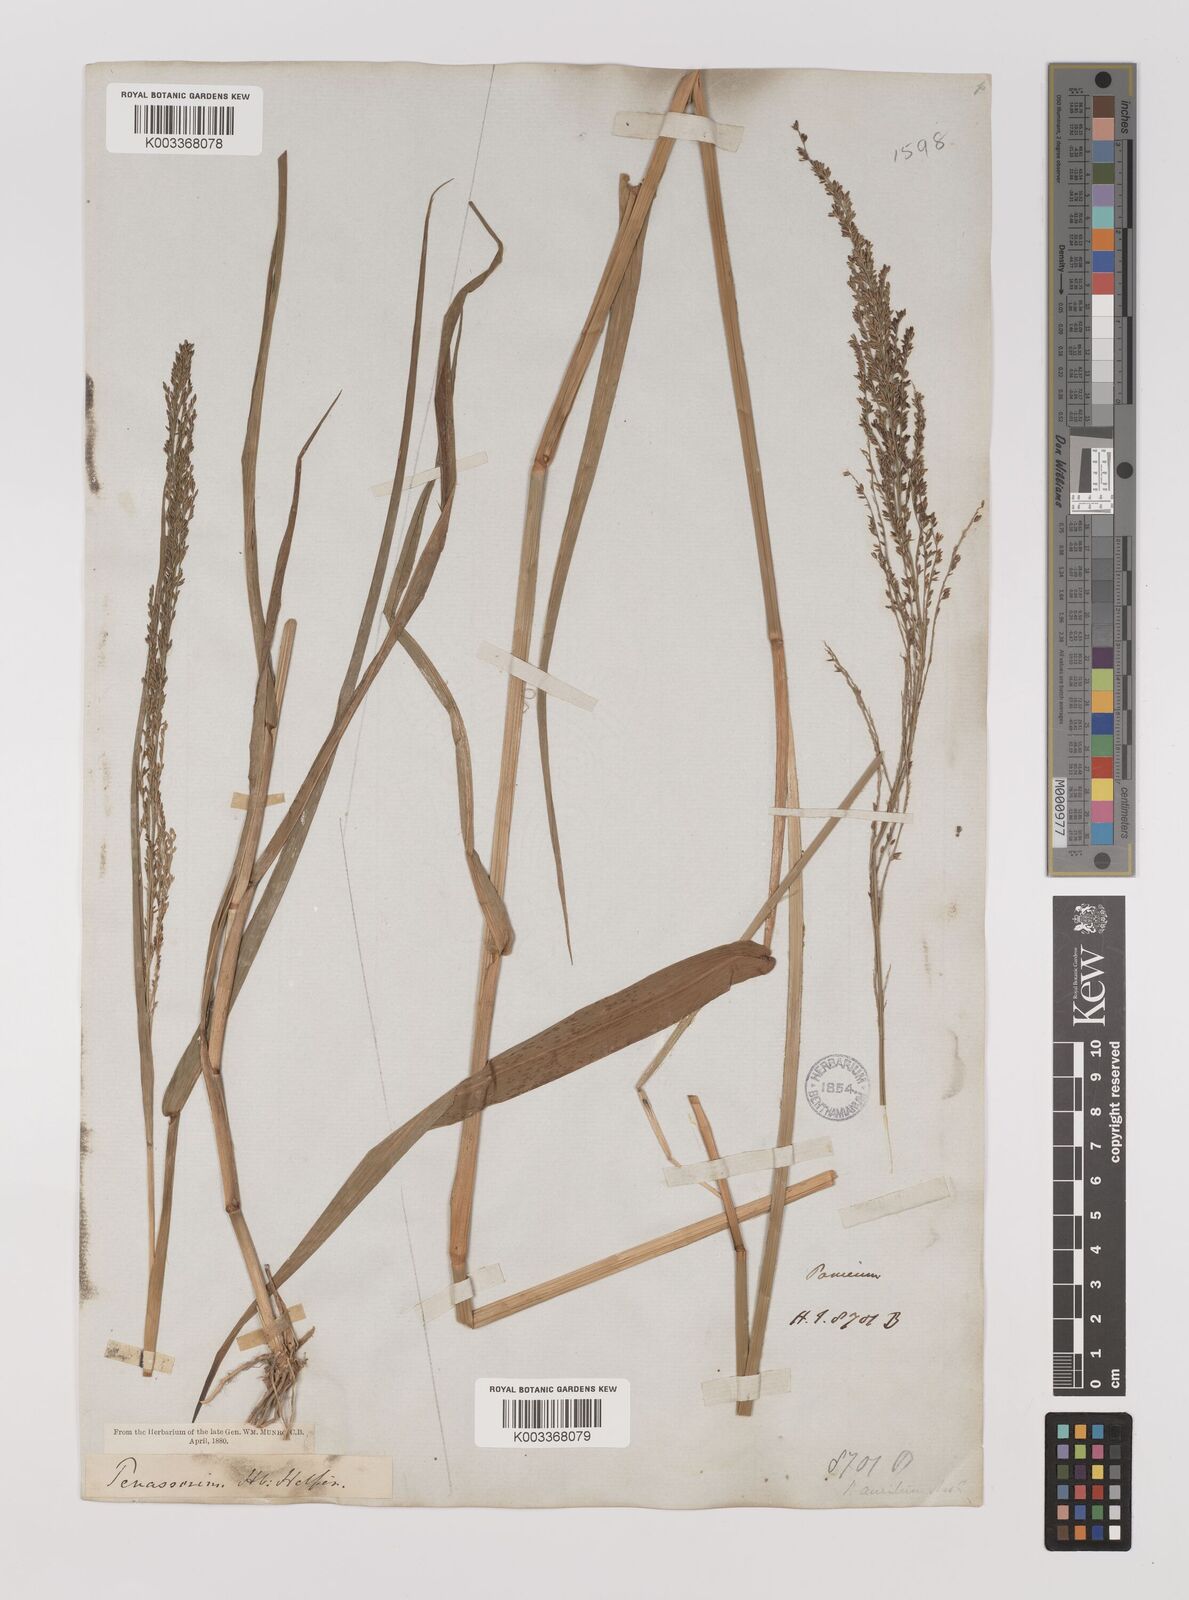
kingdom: Plantae
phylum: Tracheophyta
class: Liliopsida
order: Poales
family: Poaceae
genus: Hymenachne
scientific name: Hymenachne aurita
